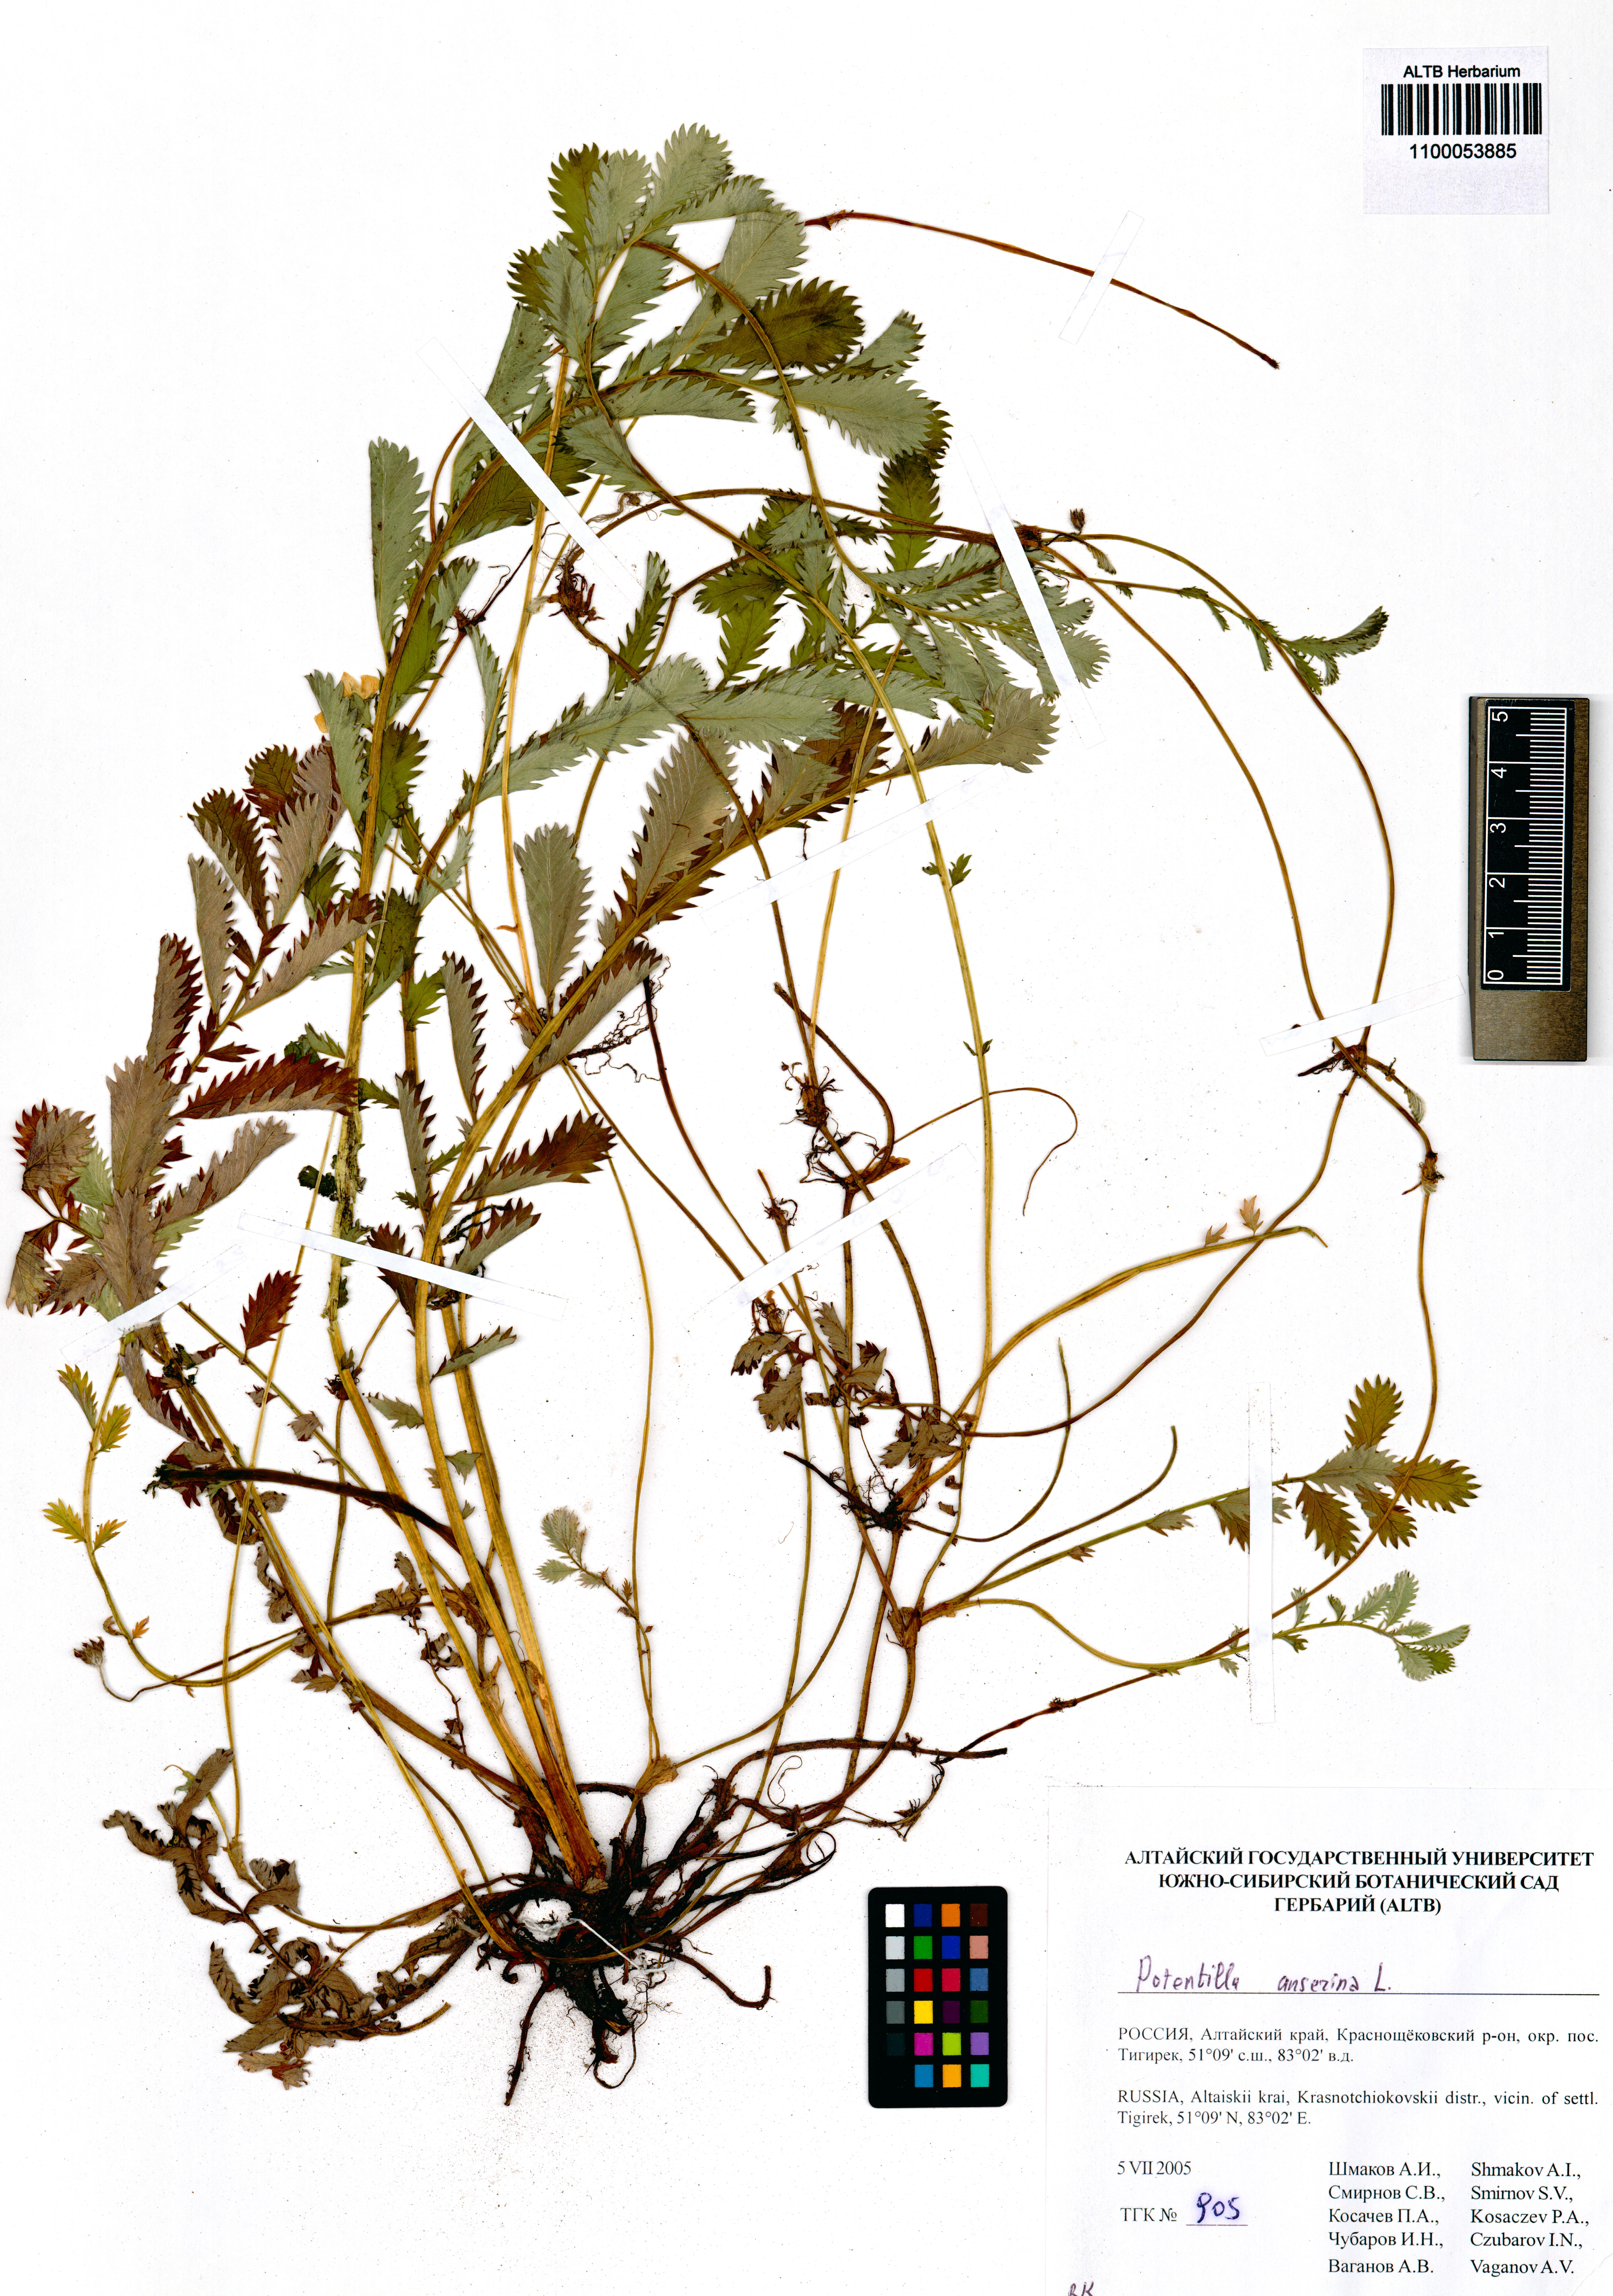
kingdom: Plantae
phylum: Tracheophyta
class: Magnoliopsida
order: Rosales
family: Rosaceae
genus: Argentina
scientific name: Argentina anserina
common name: Common silverweed
